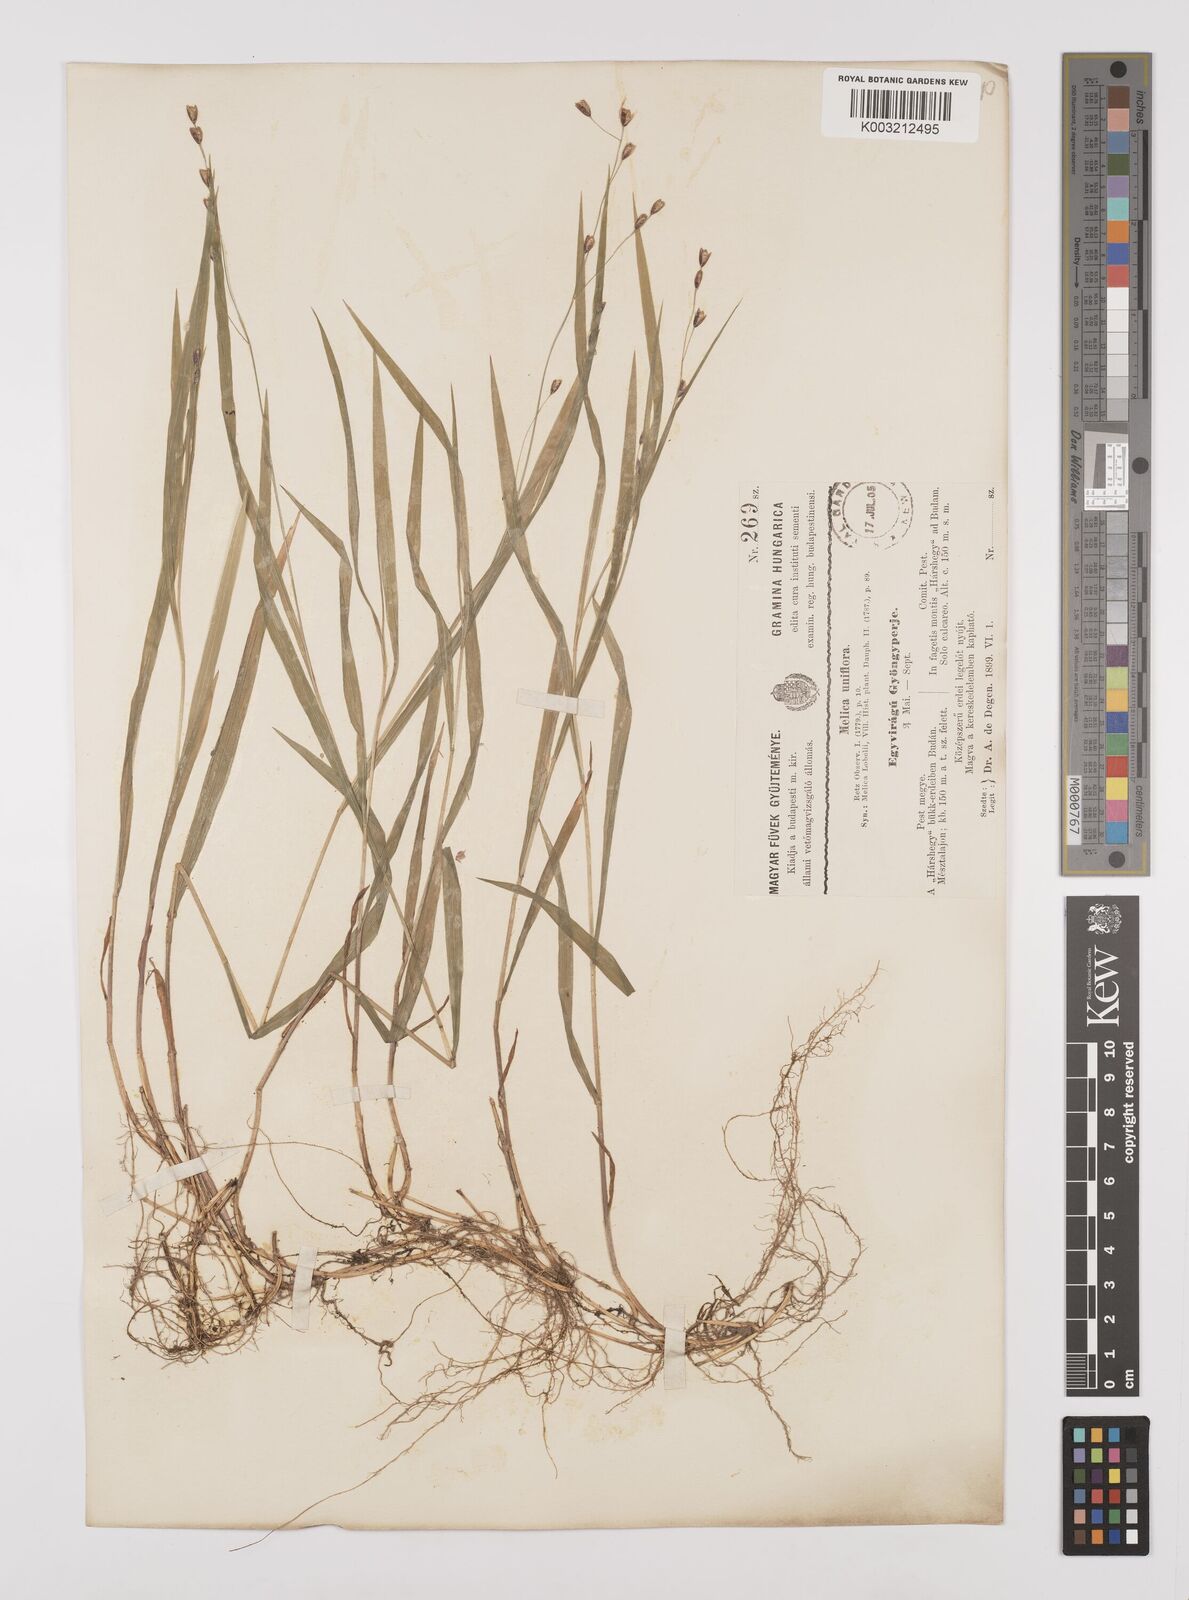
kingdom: Plantae
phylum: Tracheophyta
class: Liliopsida
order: Poales
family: Poaceae
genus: Melica
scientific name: Melica uniflora
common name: Wood melick
